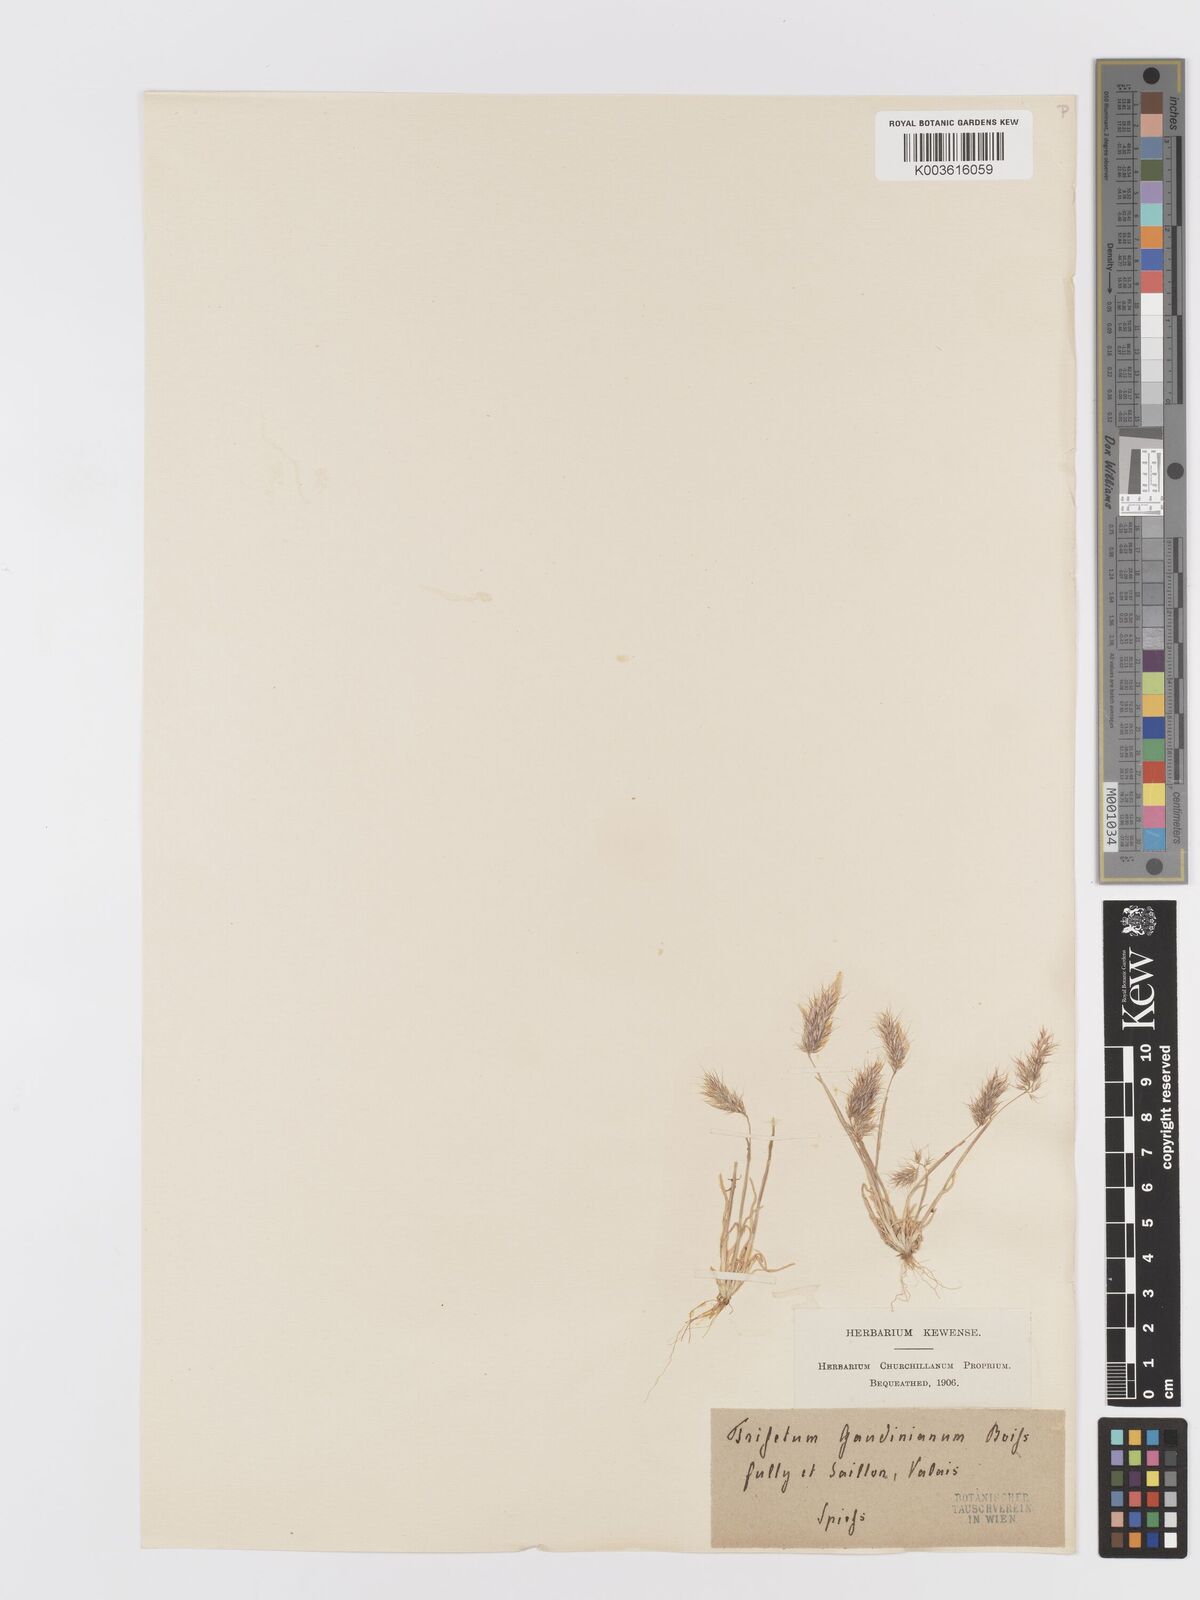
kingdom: Plantae
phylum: Tracheophyta
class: Liliopsida
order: Poales
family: Poaceae
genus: Trisetaria
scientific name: Trisetaria loeflingiana
